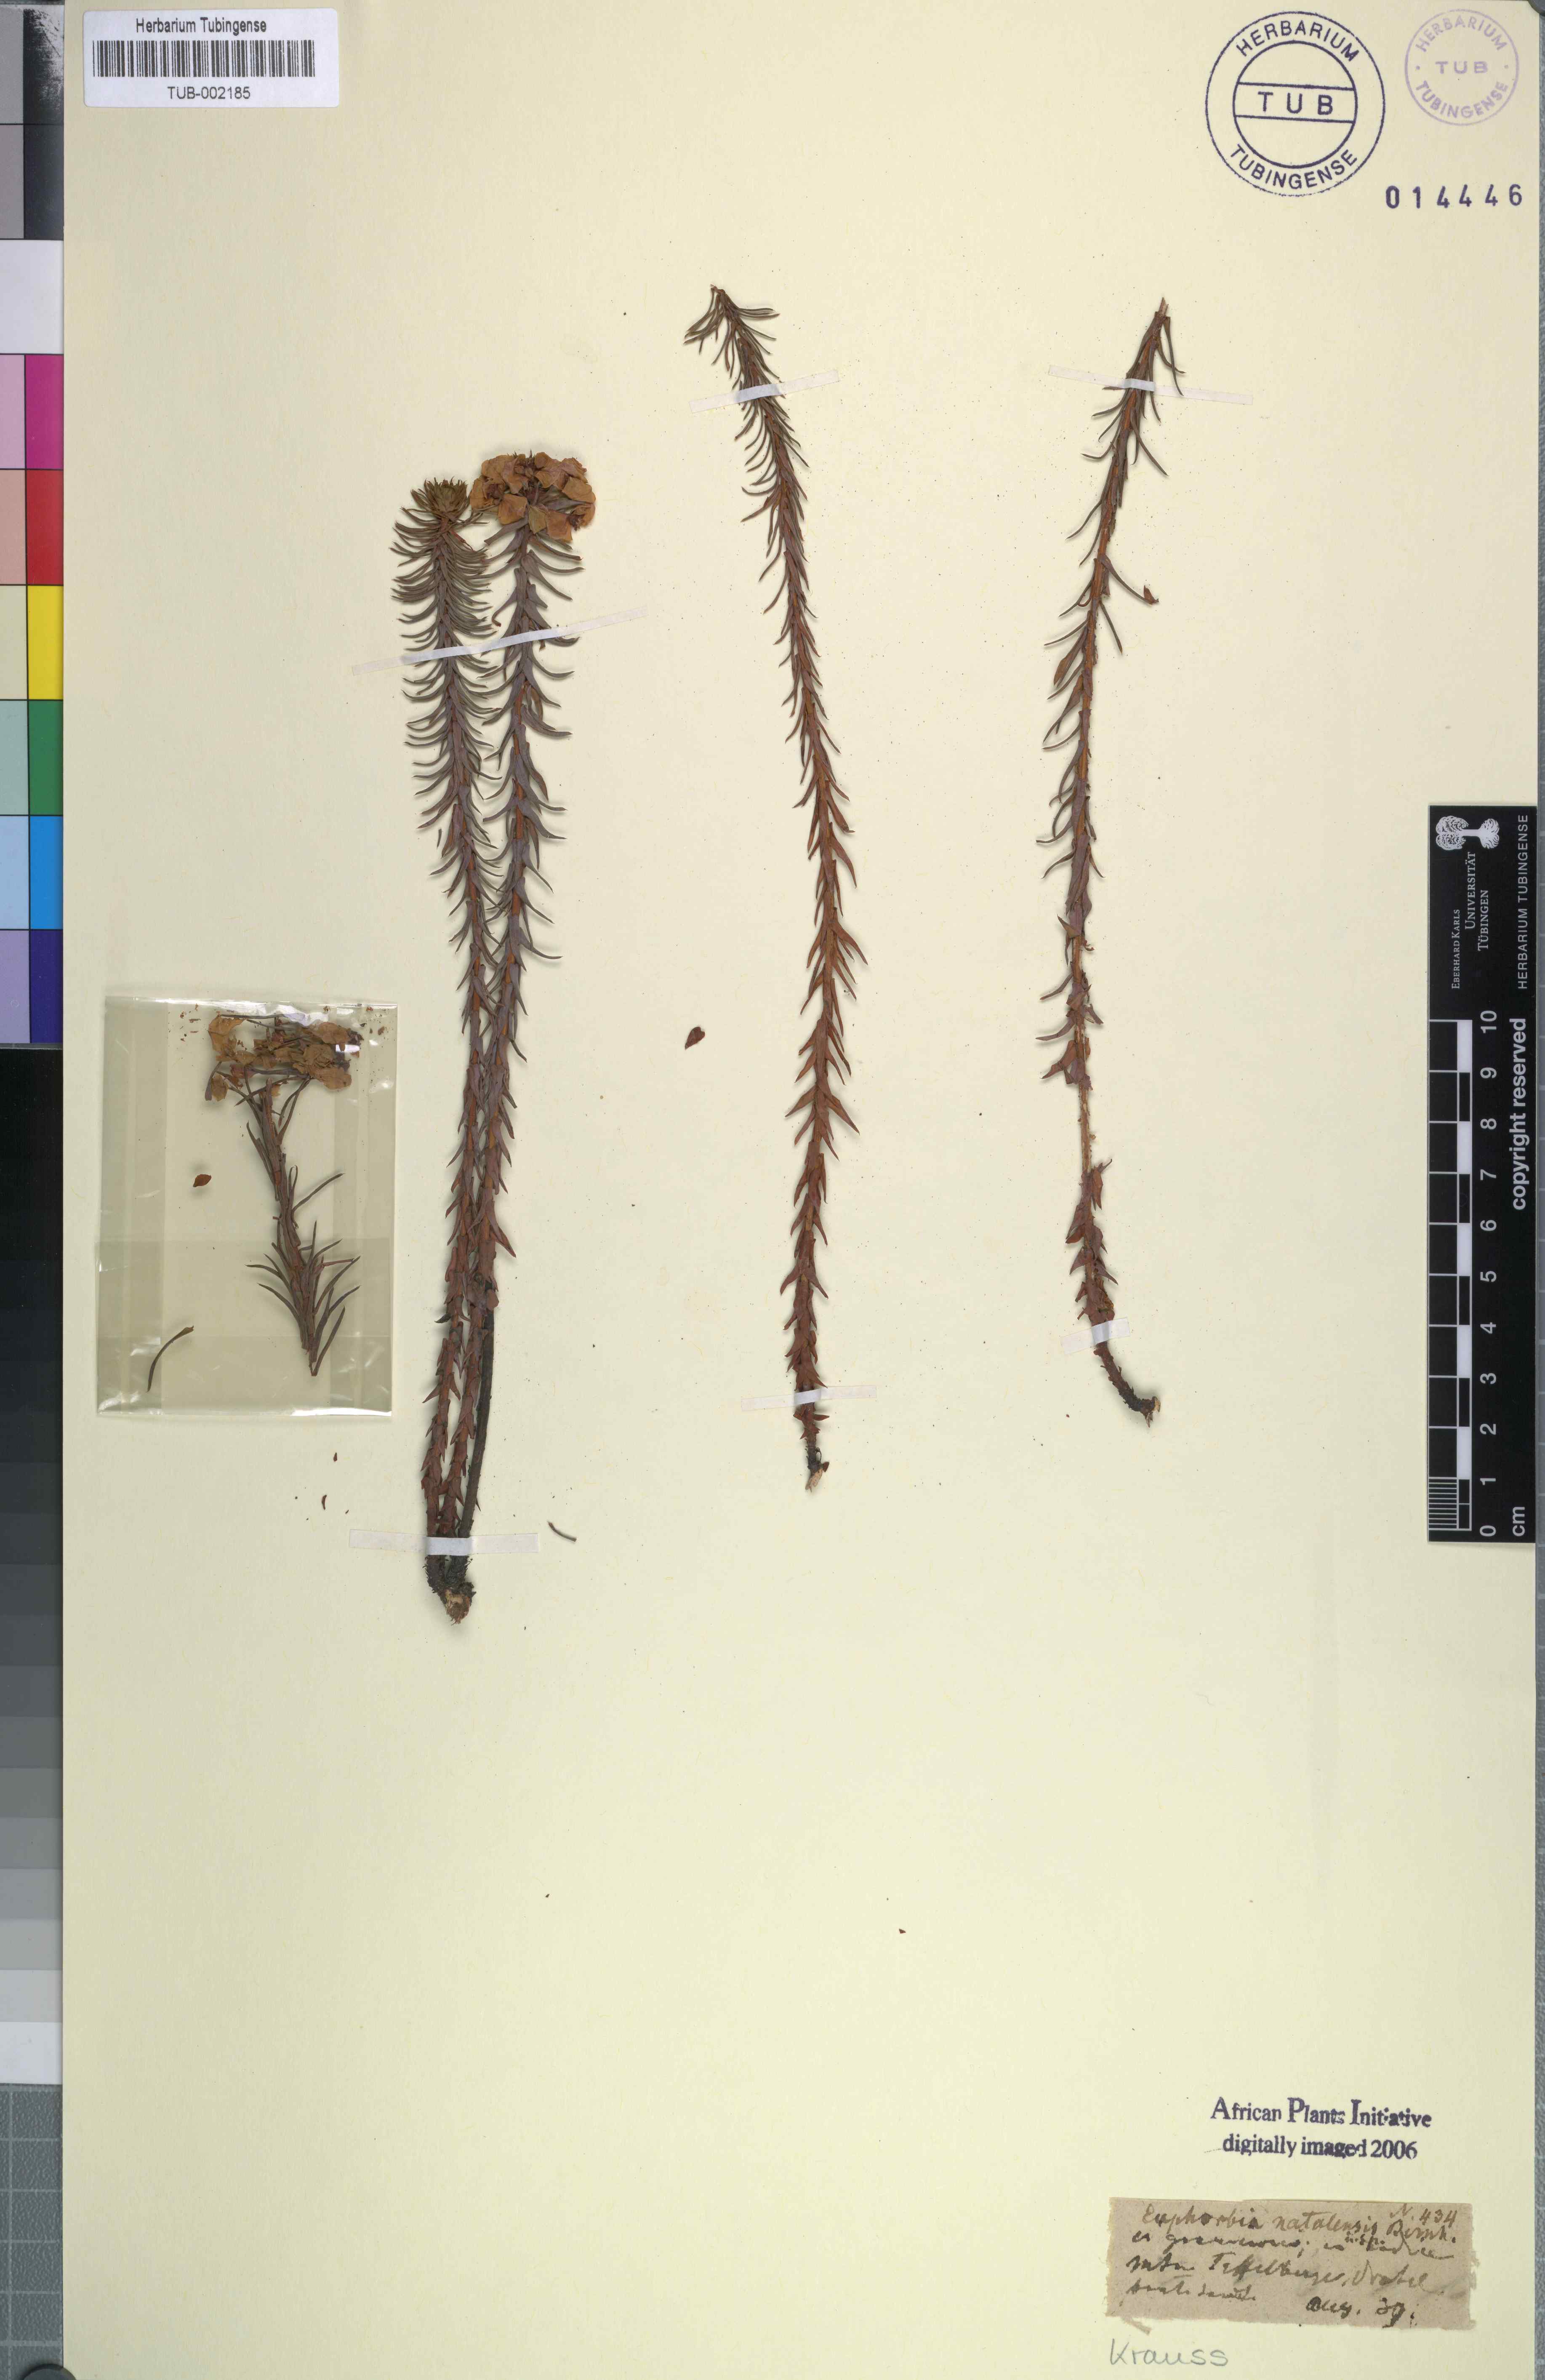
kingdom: Plantae
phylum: Tracheophyta
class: Magnoliopsida
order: Malpighiales
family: Euphorbiaceae
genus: Euphorbia
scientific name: Euphorbia natalensis
